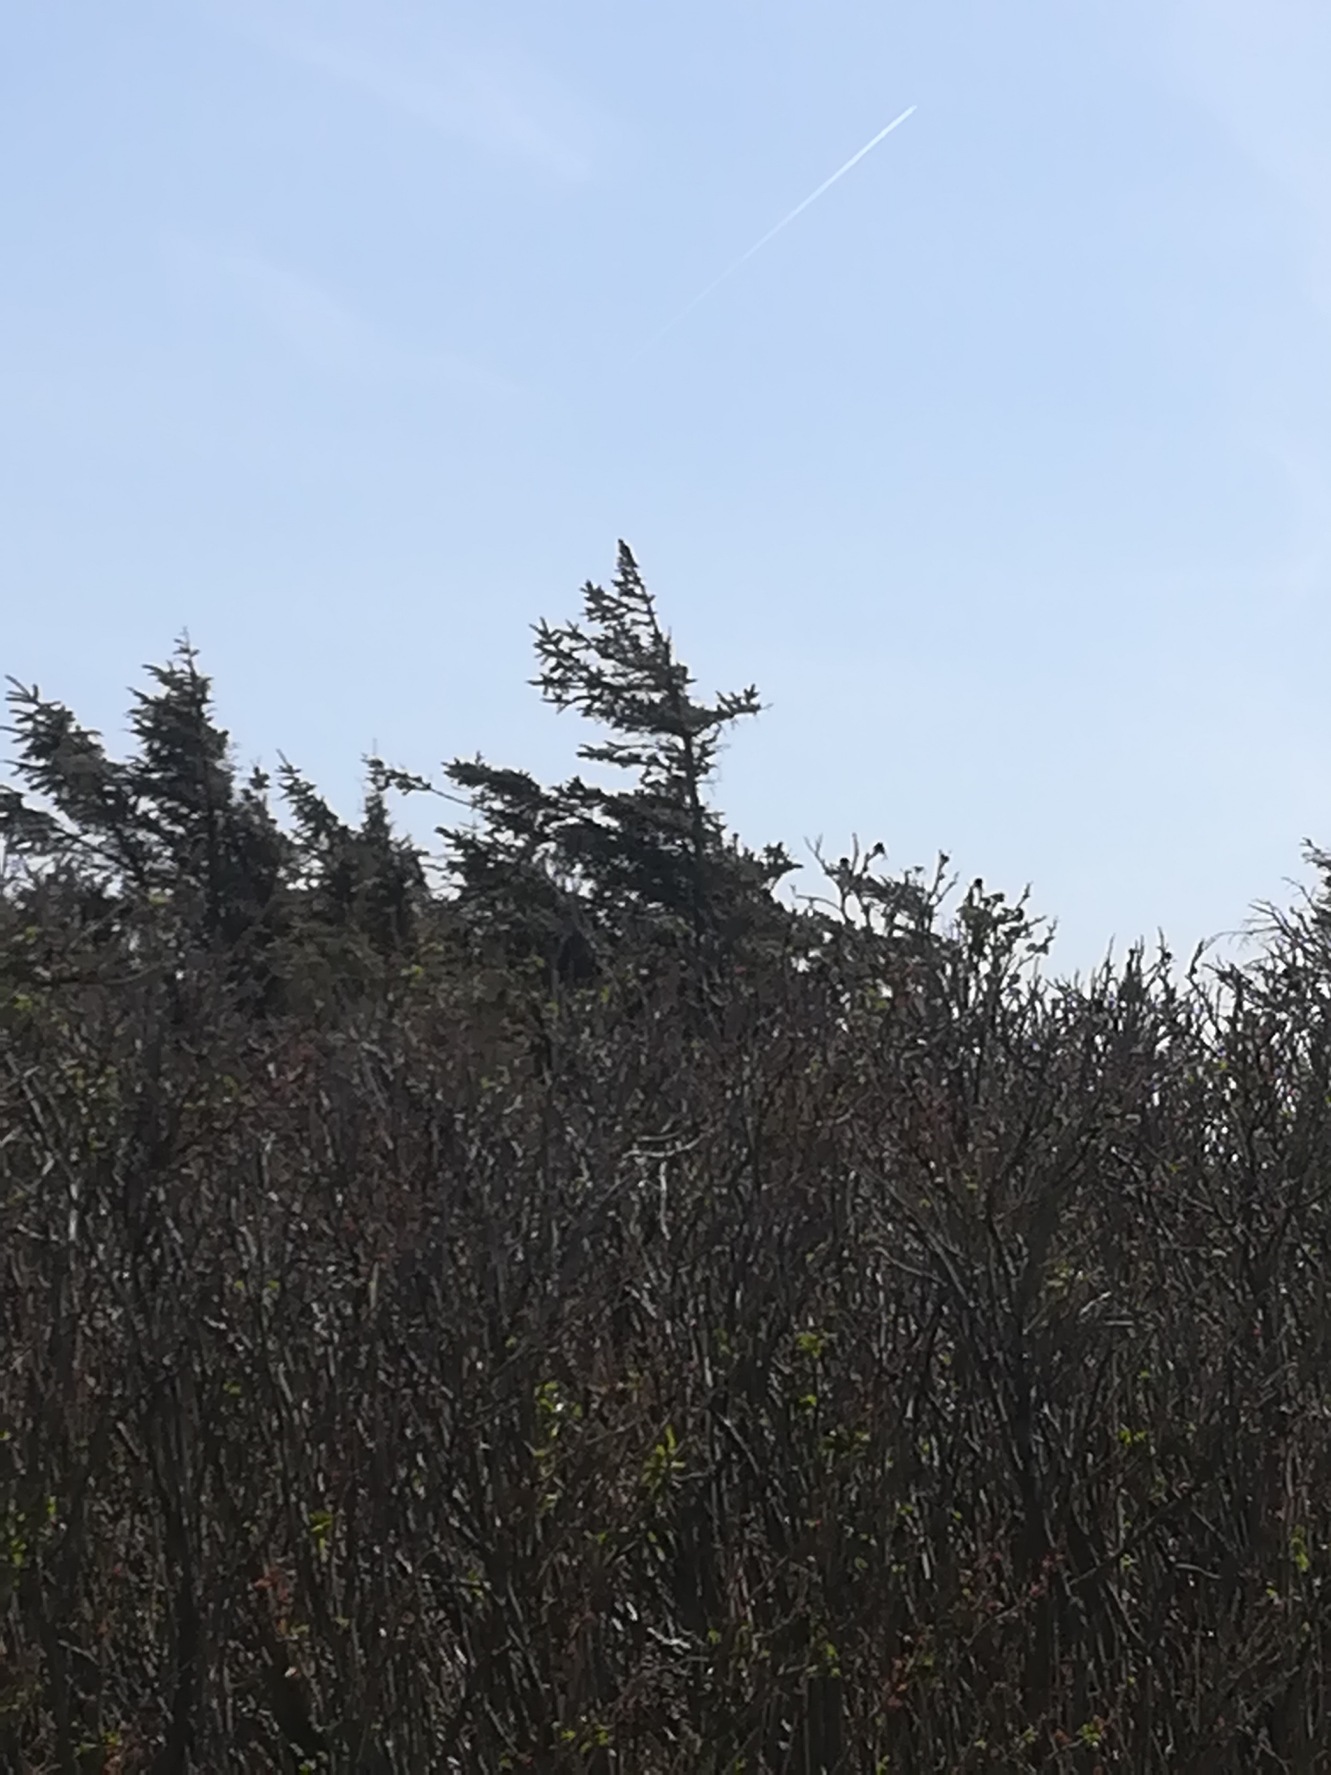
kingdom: Animalia
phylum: Chordata
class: Aves
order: Cuculiformes
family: Cuculidae
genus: Cuculus
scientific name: Cuculus canorus
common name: Gøg
